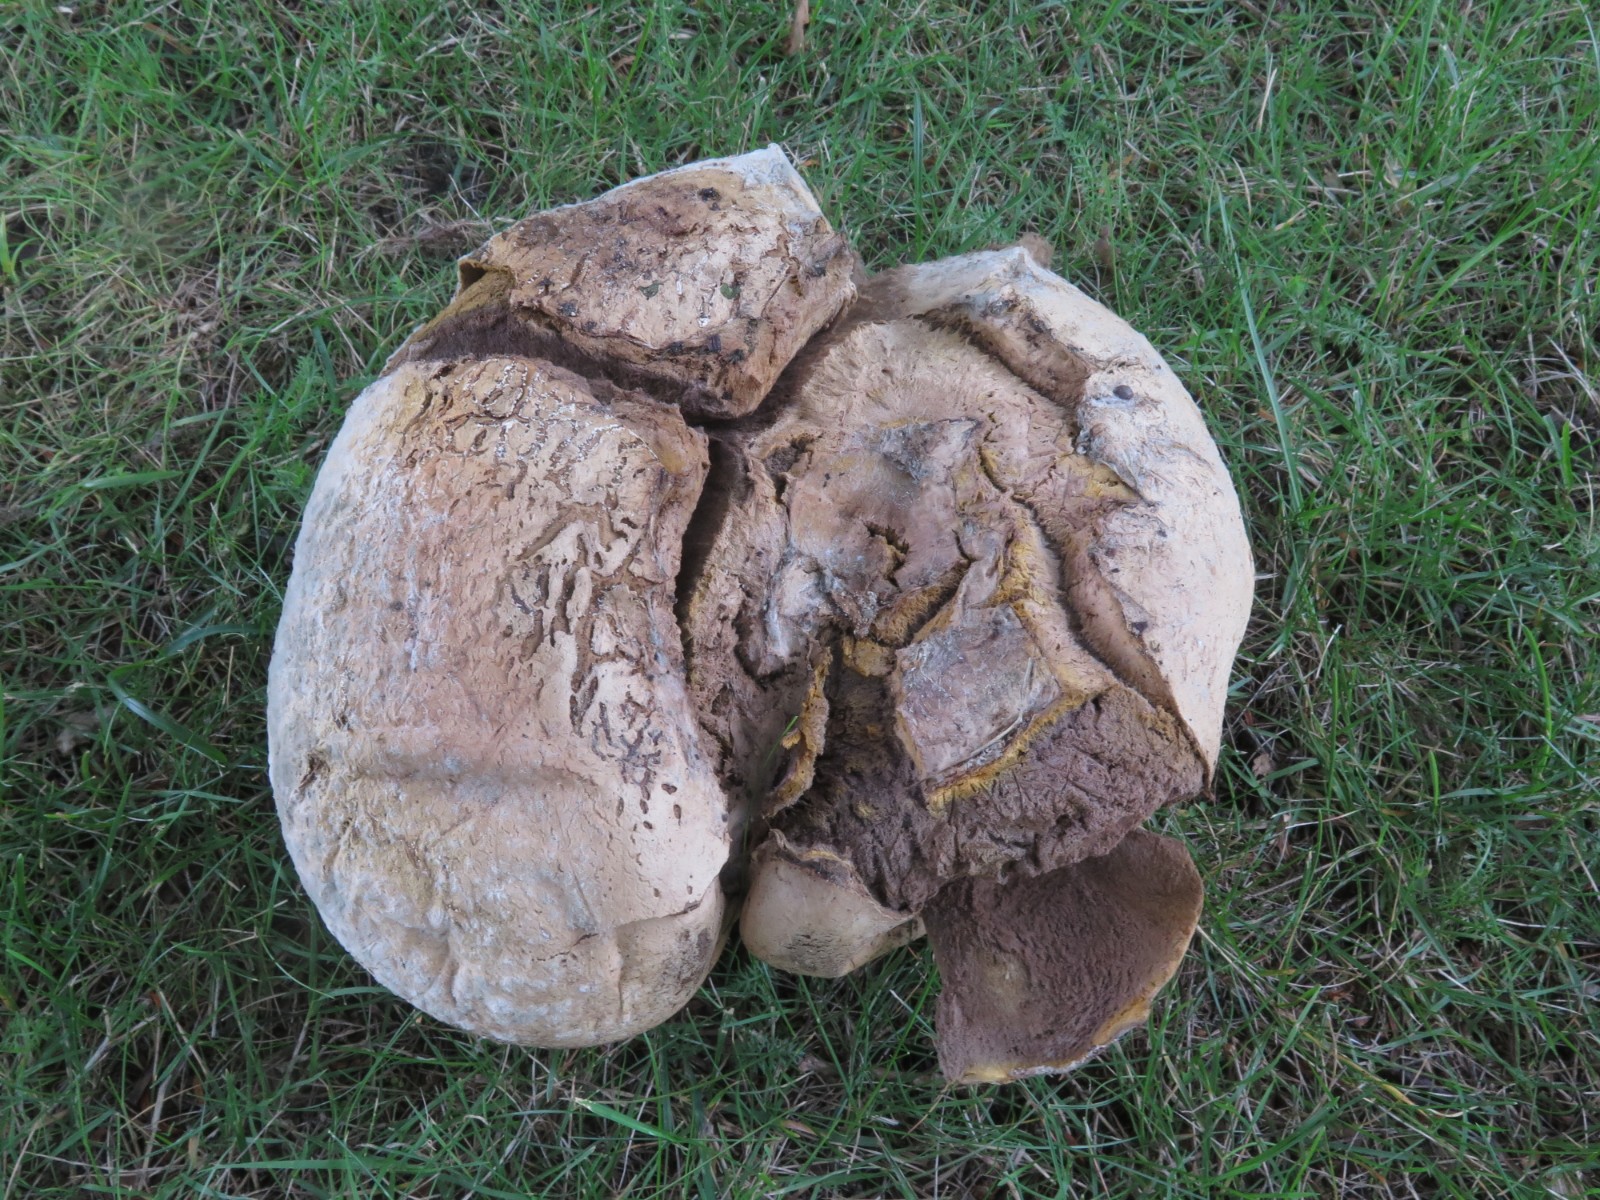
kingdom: Fungi
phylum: Basidiomycota
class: Agaricomycetes
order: Agaricales
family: Lycoperdaceae
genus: Calvatia
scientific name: Calvatia gigantea
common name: kæmpestøvbold
